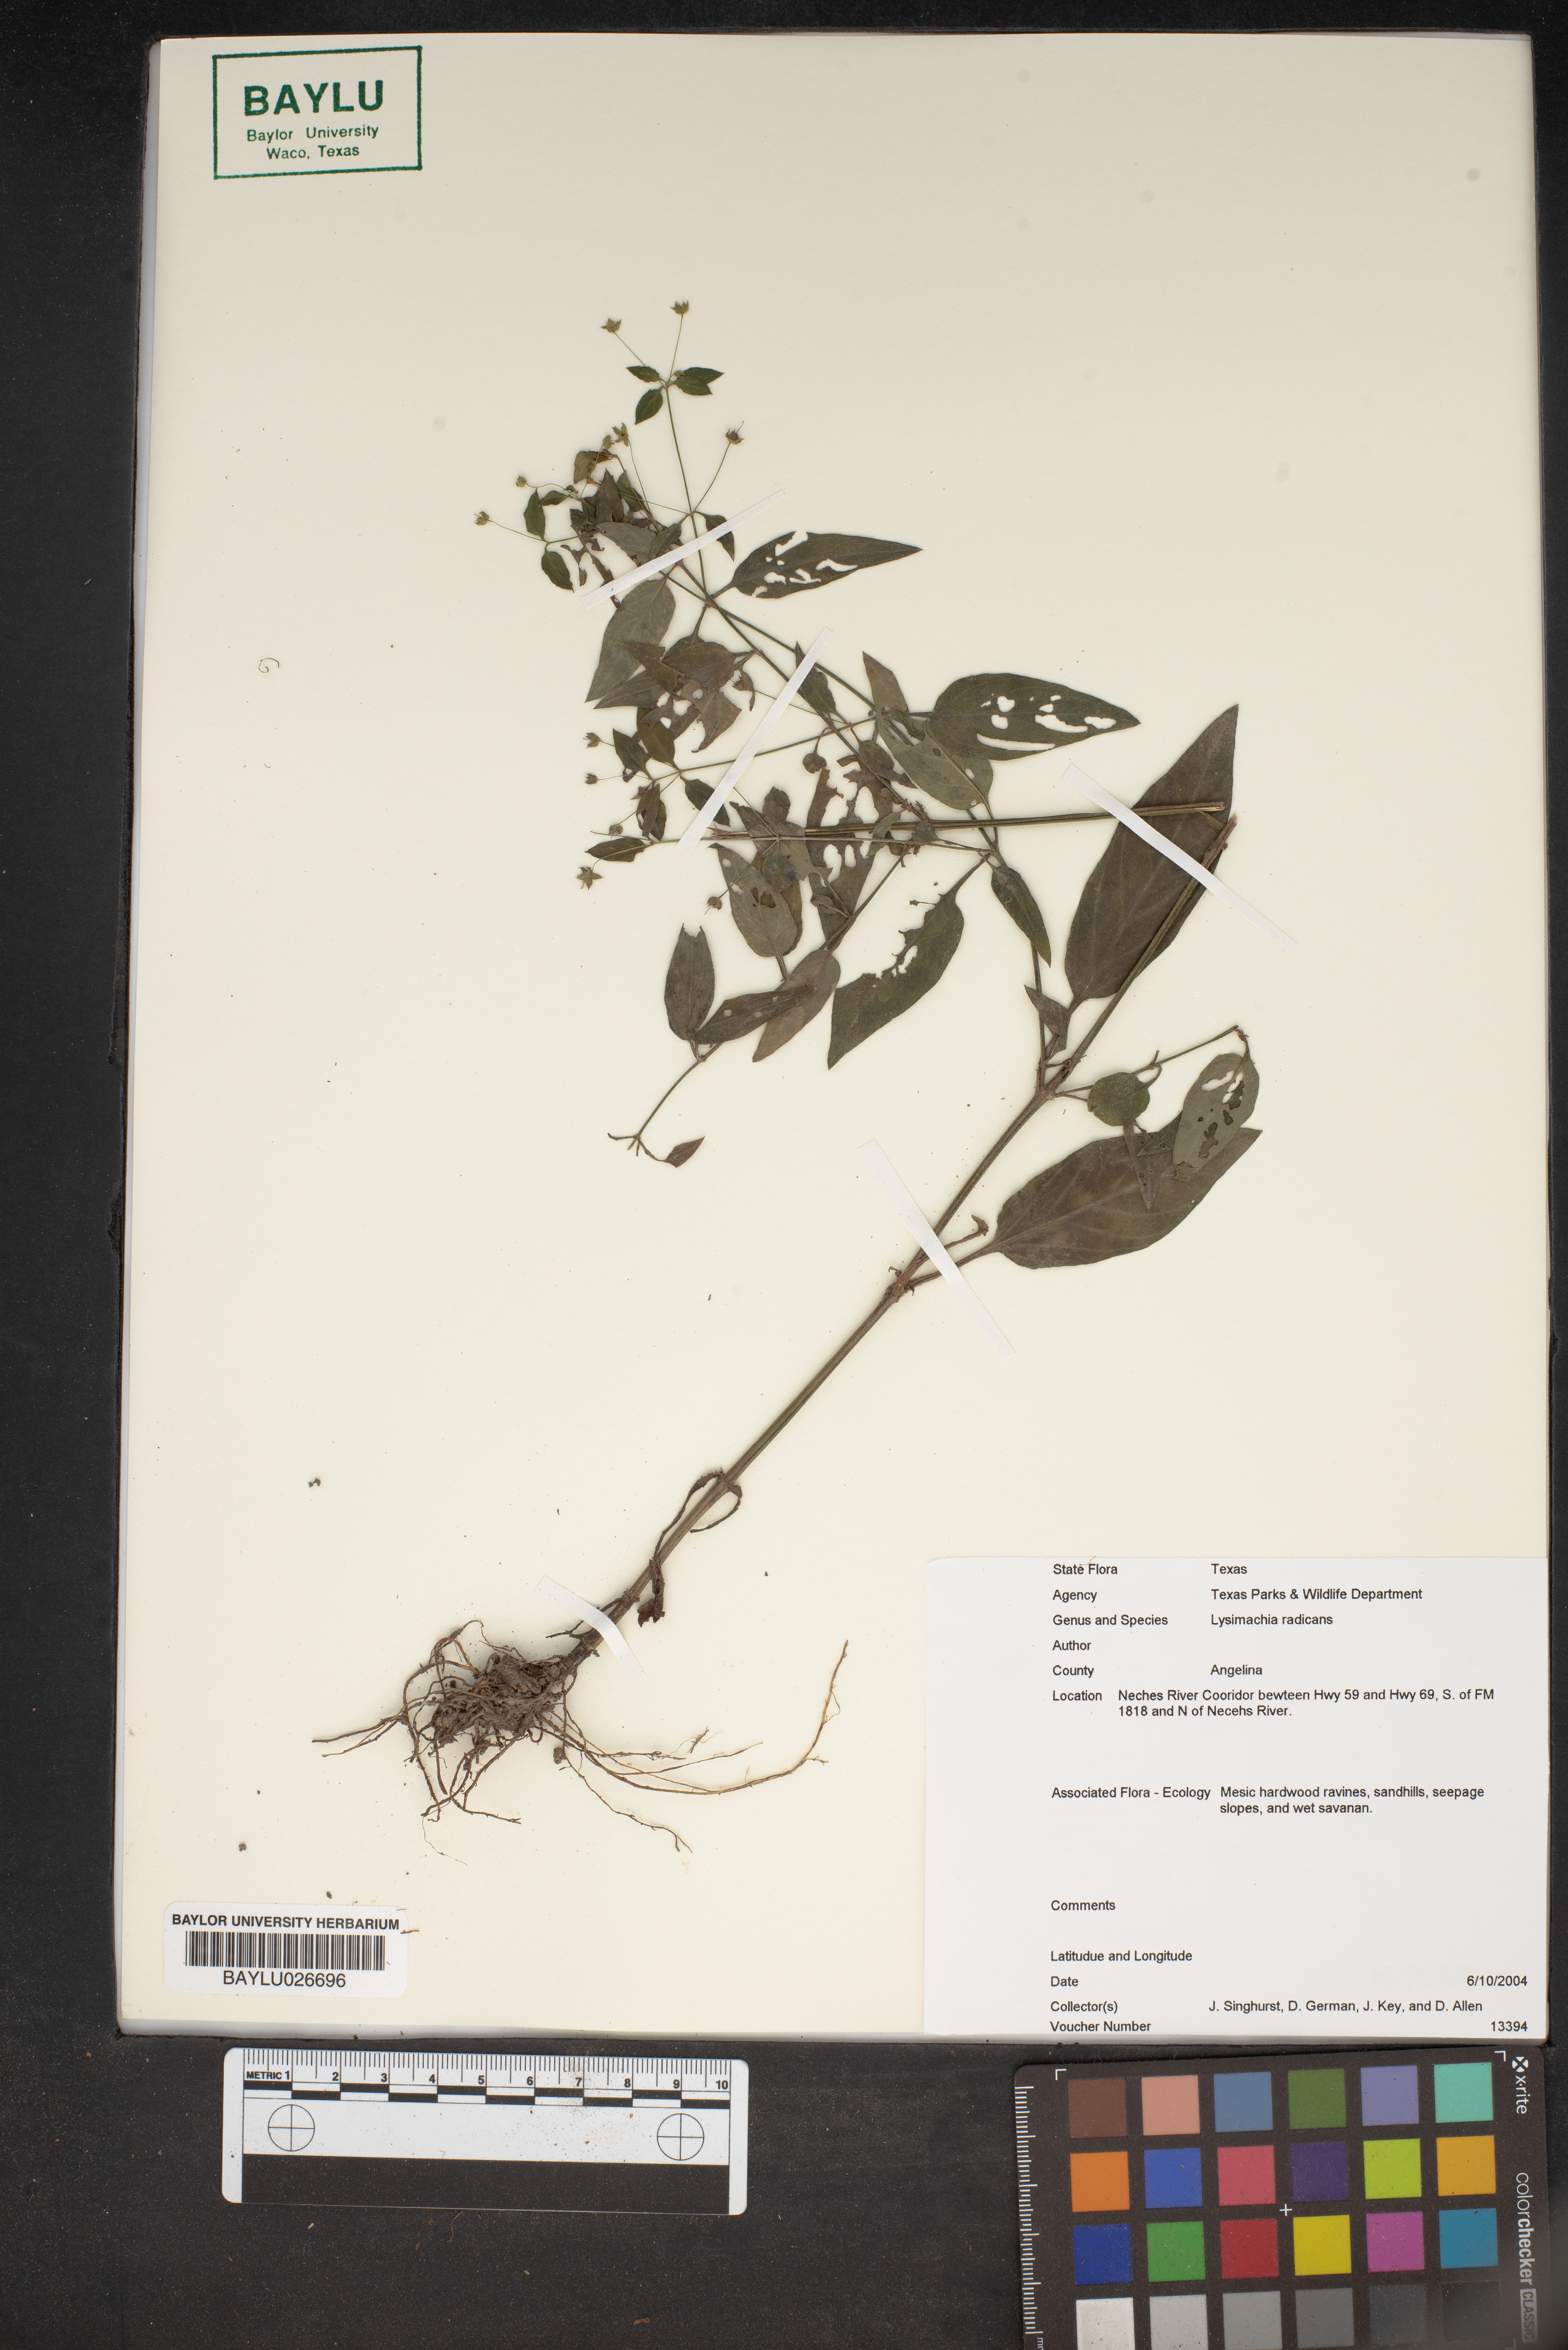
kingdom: Plantae
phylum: Tracheophyta
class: Magnoliopsida
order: Ericales
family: Primulaceae
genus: Lysimachia
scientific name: Lysimachia radicans
